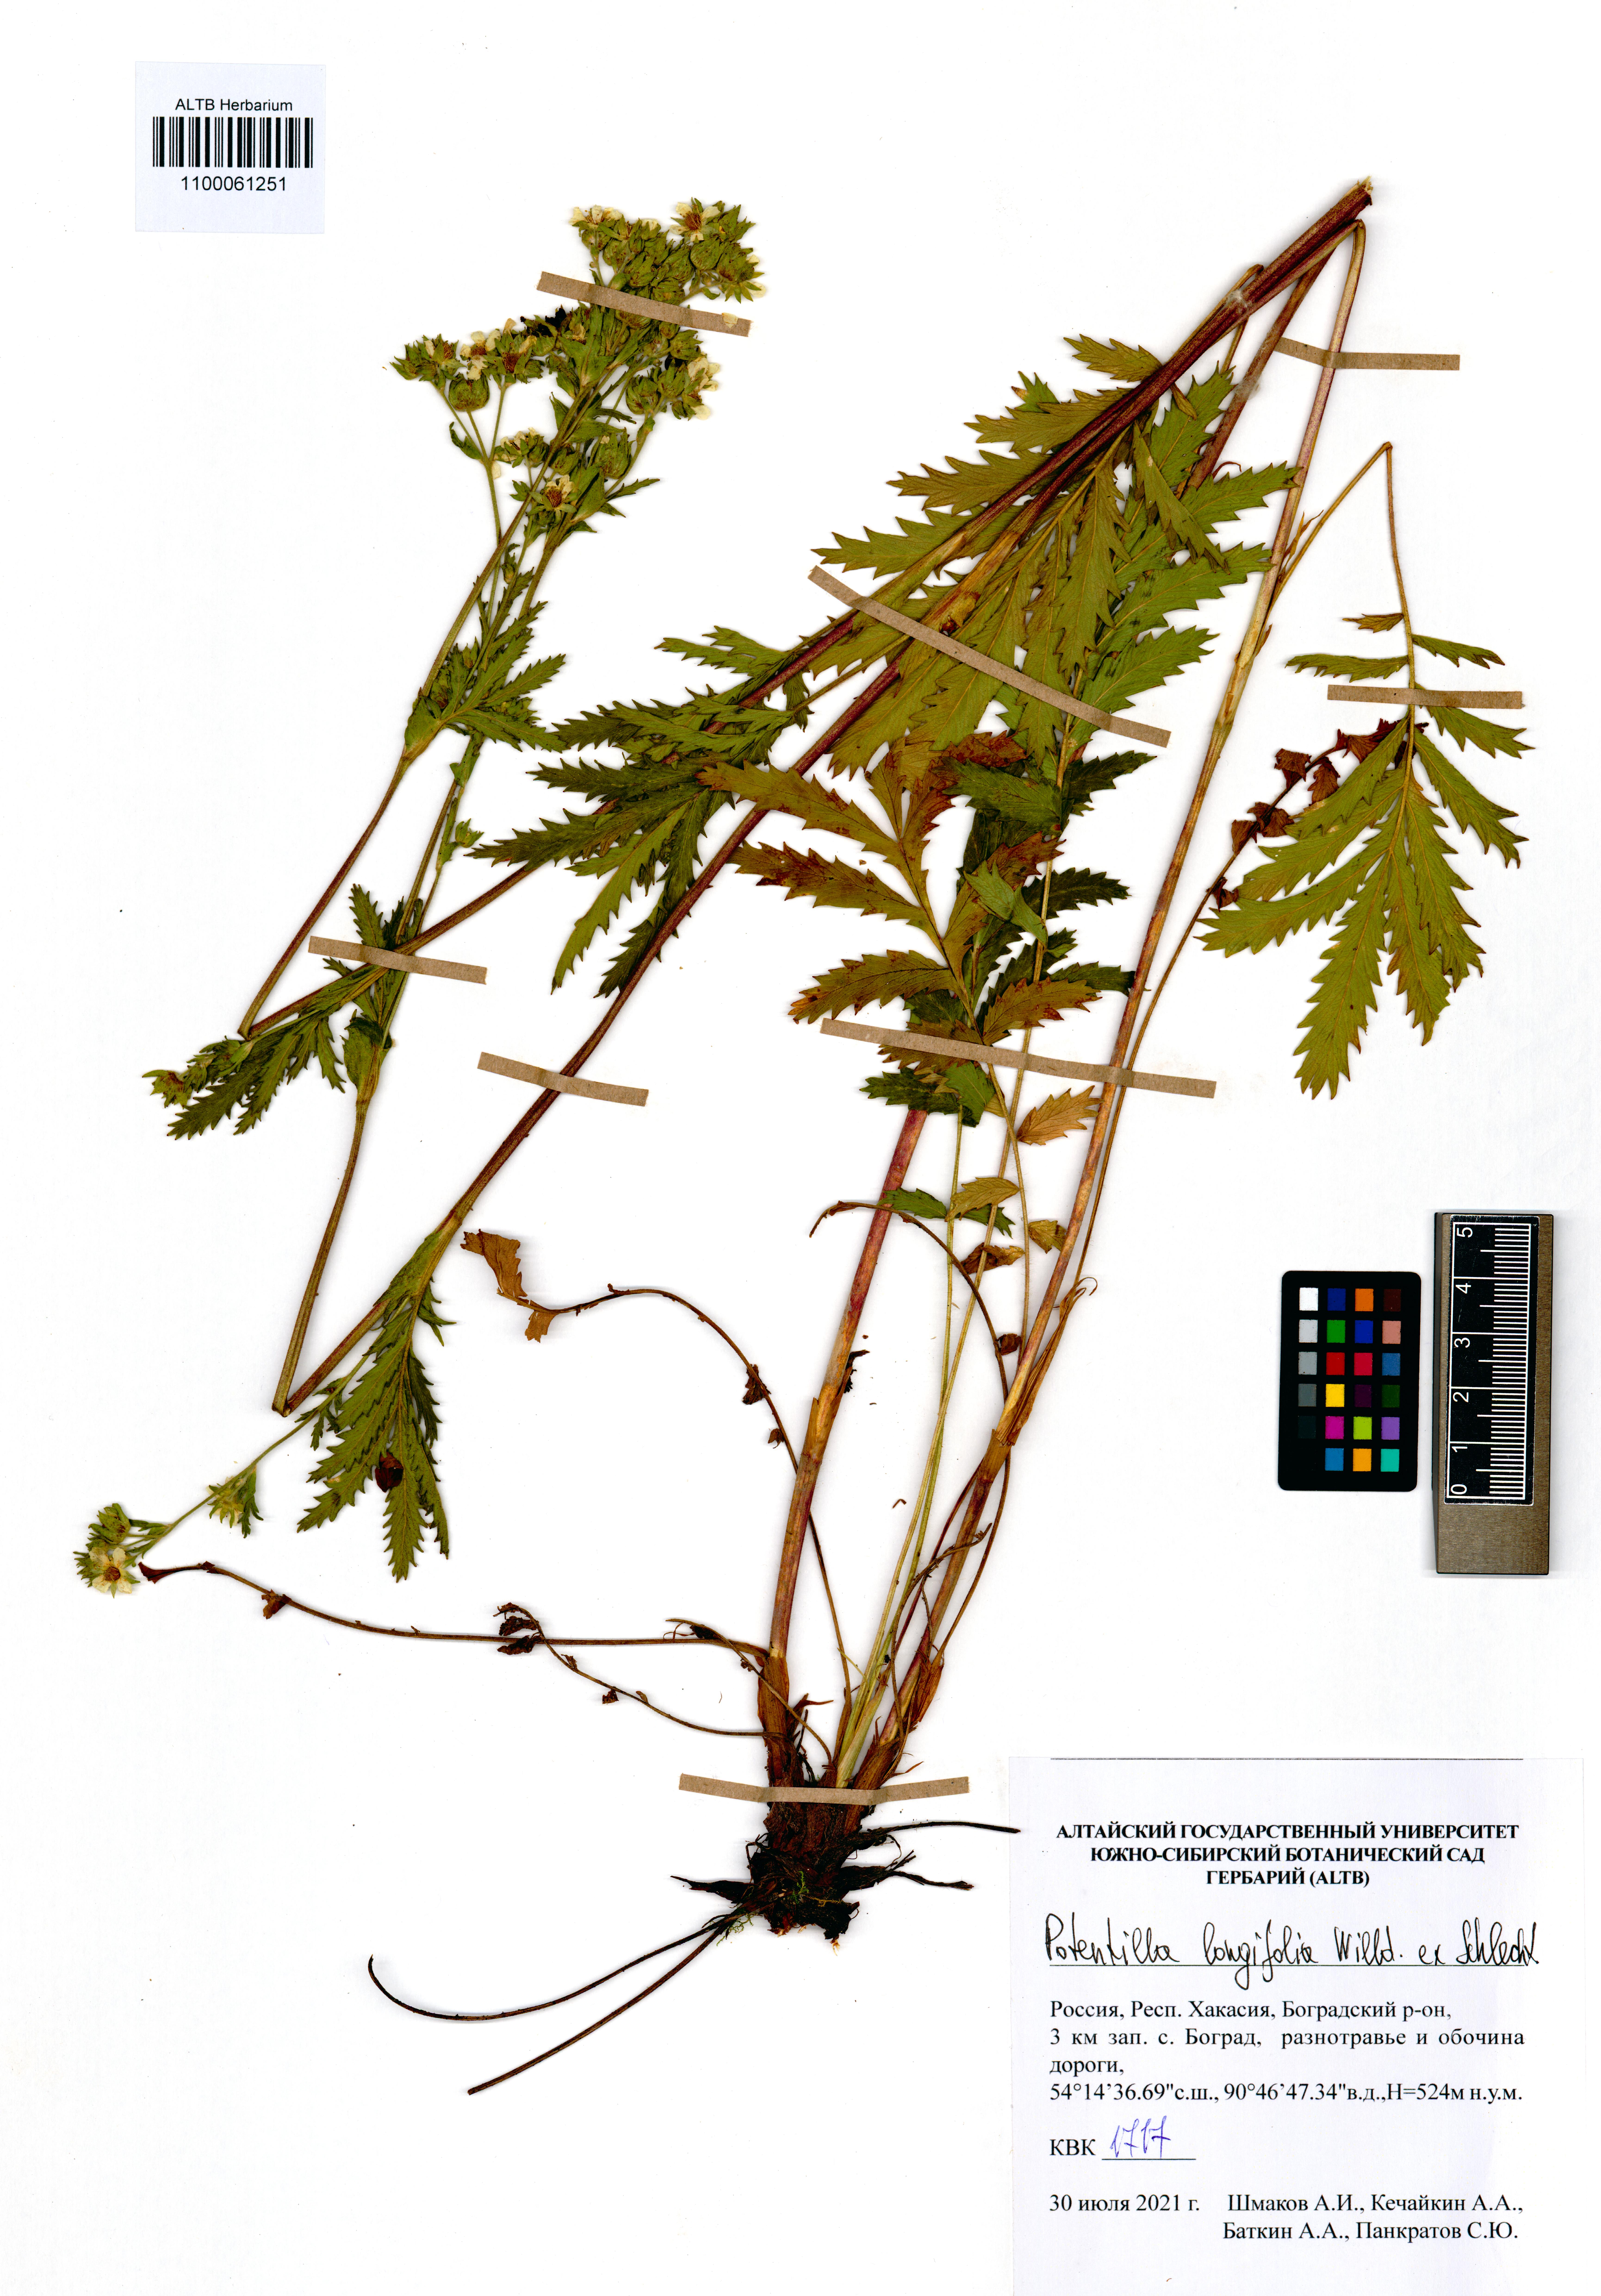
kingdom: Plantae
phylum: Tracheophyta
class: Magnoliopsida
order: Rosales
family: Rosaceae
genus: Potentilla
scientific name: Potentilla longifolia
